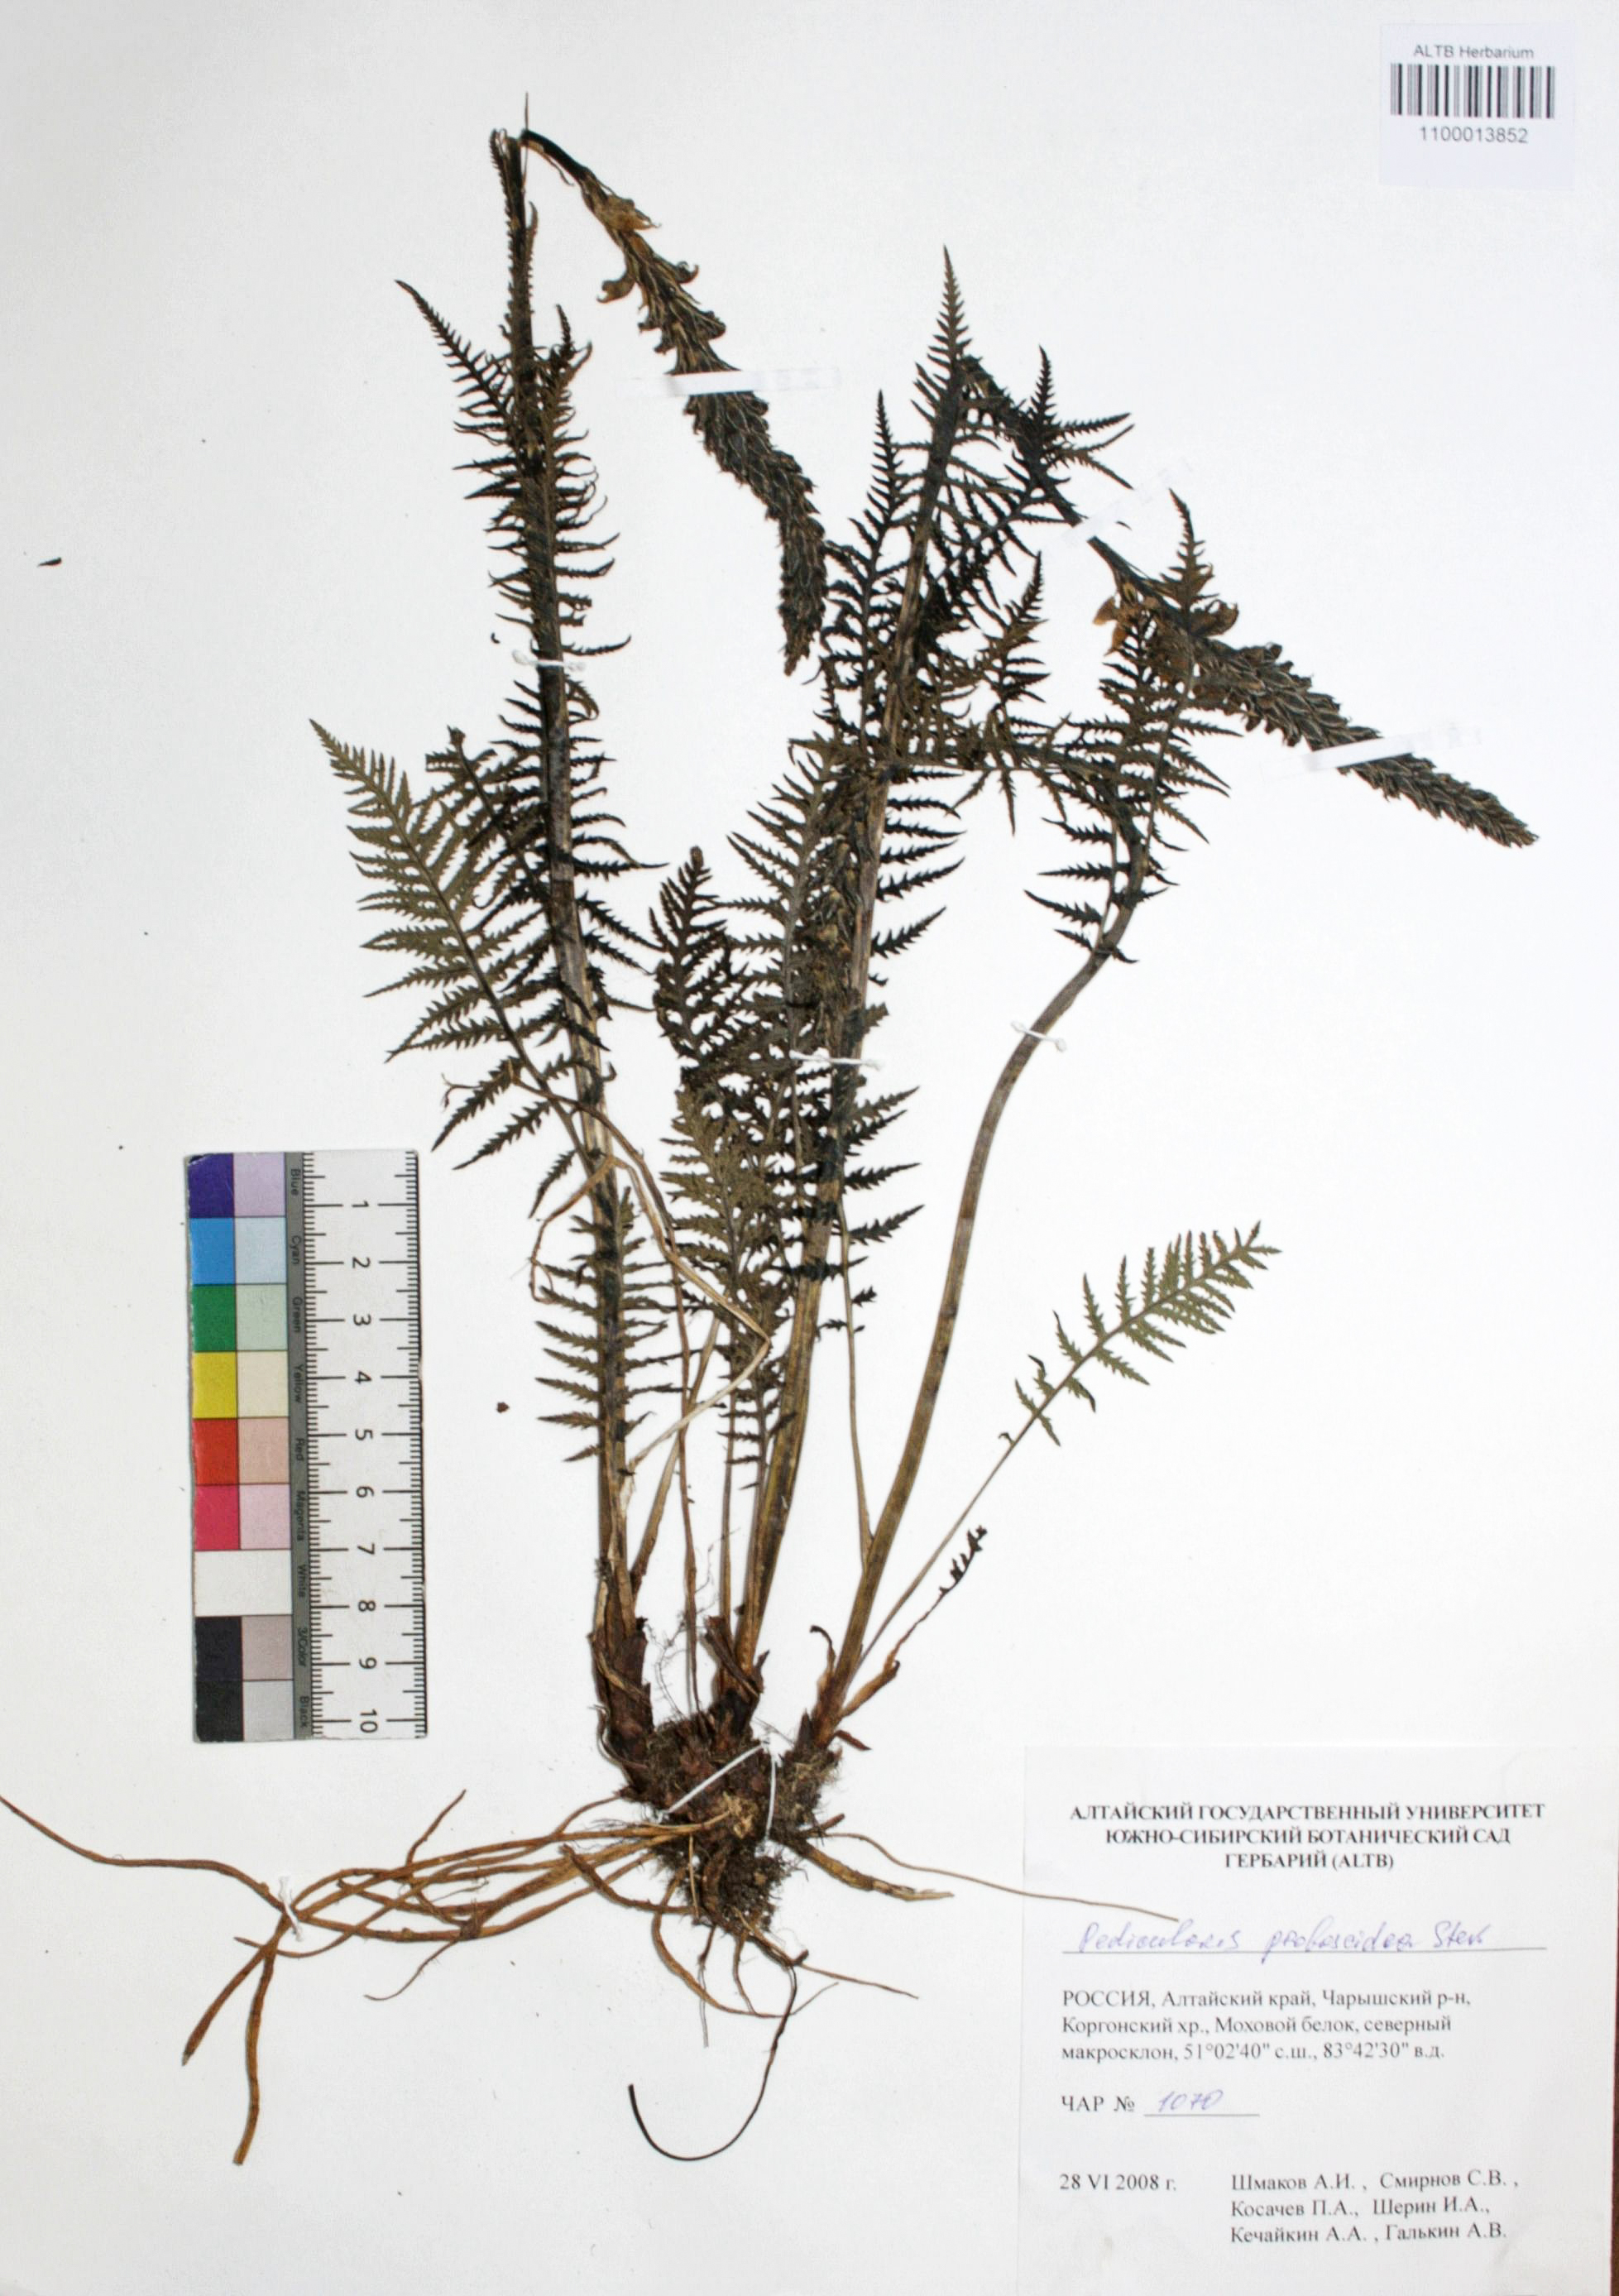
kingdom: Plantae
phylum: Tracheophyta
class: Magnoliopsida
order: Lamiales
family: Orobanchaceae
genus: Pedicularis
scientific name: Pedicularis proboscidea
